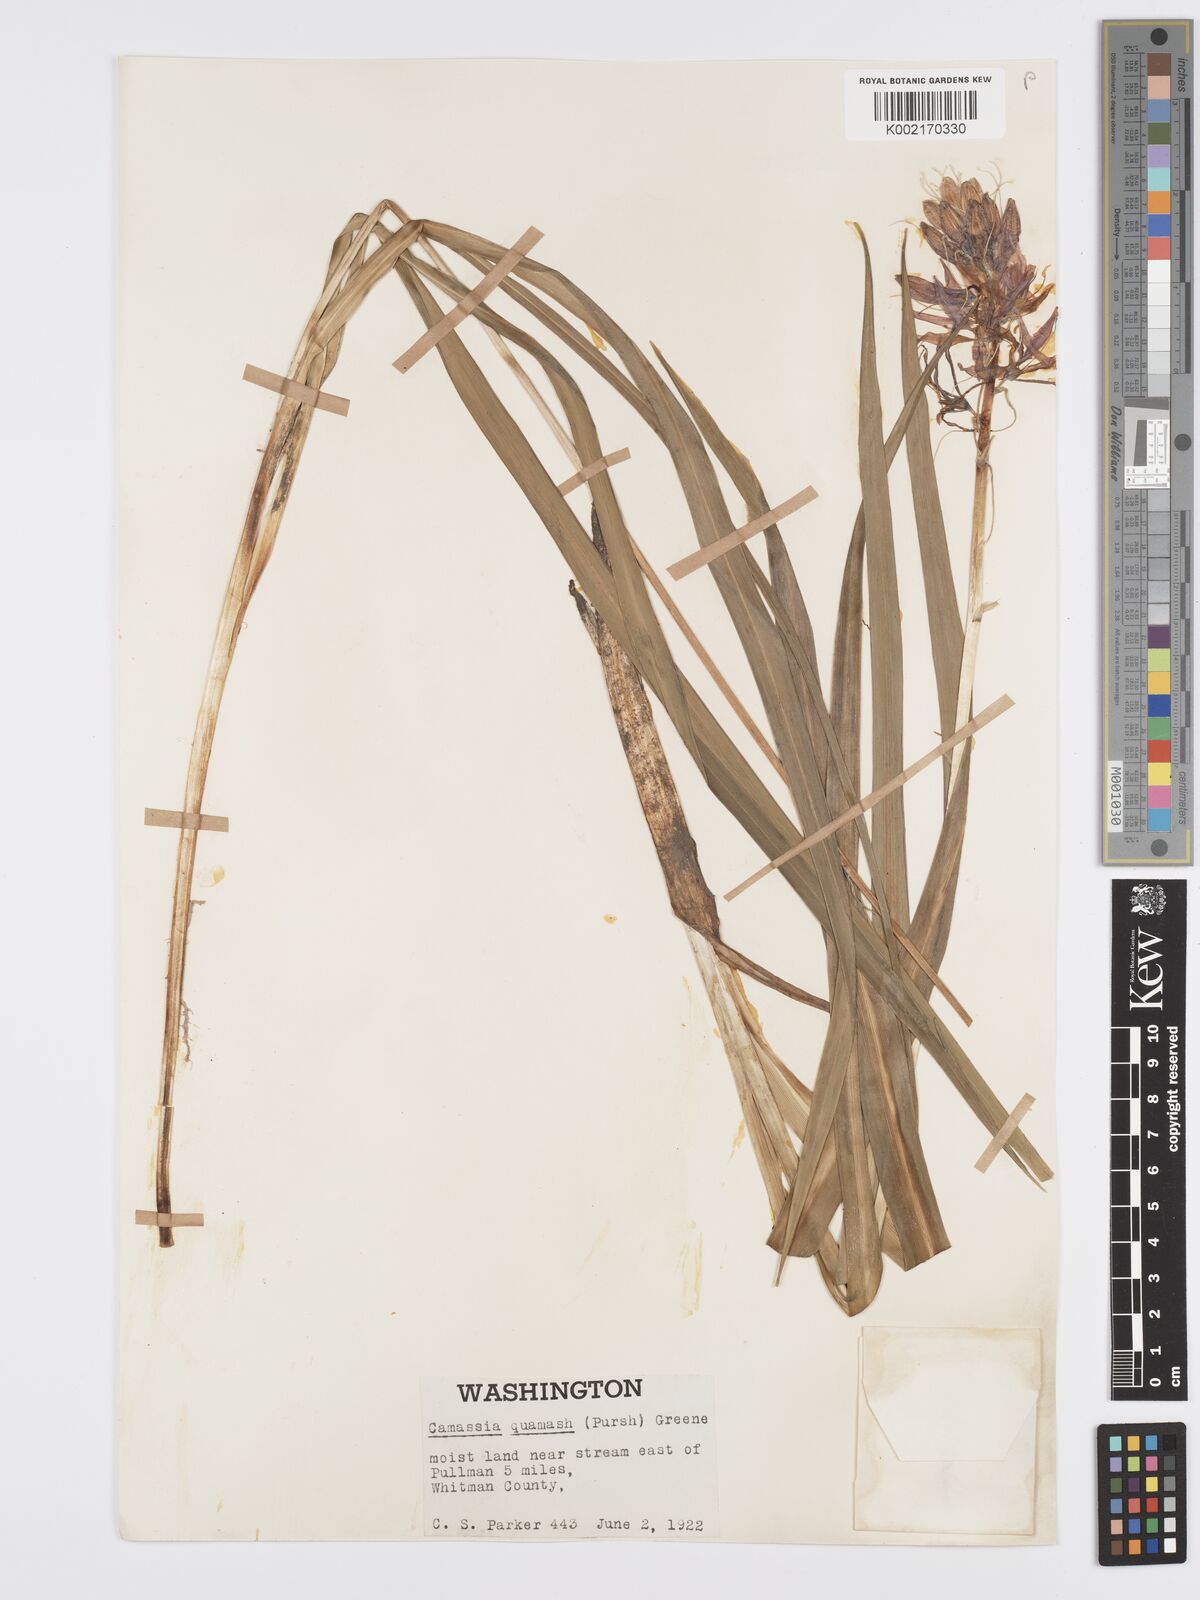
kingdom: Plantae
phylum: Tracheophyta
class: Liliopsida
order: Asparagales
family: Asparagaceae
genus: Camassia
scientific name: Camassia quamash
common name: Common camas
